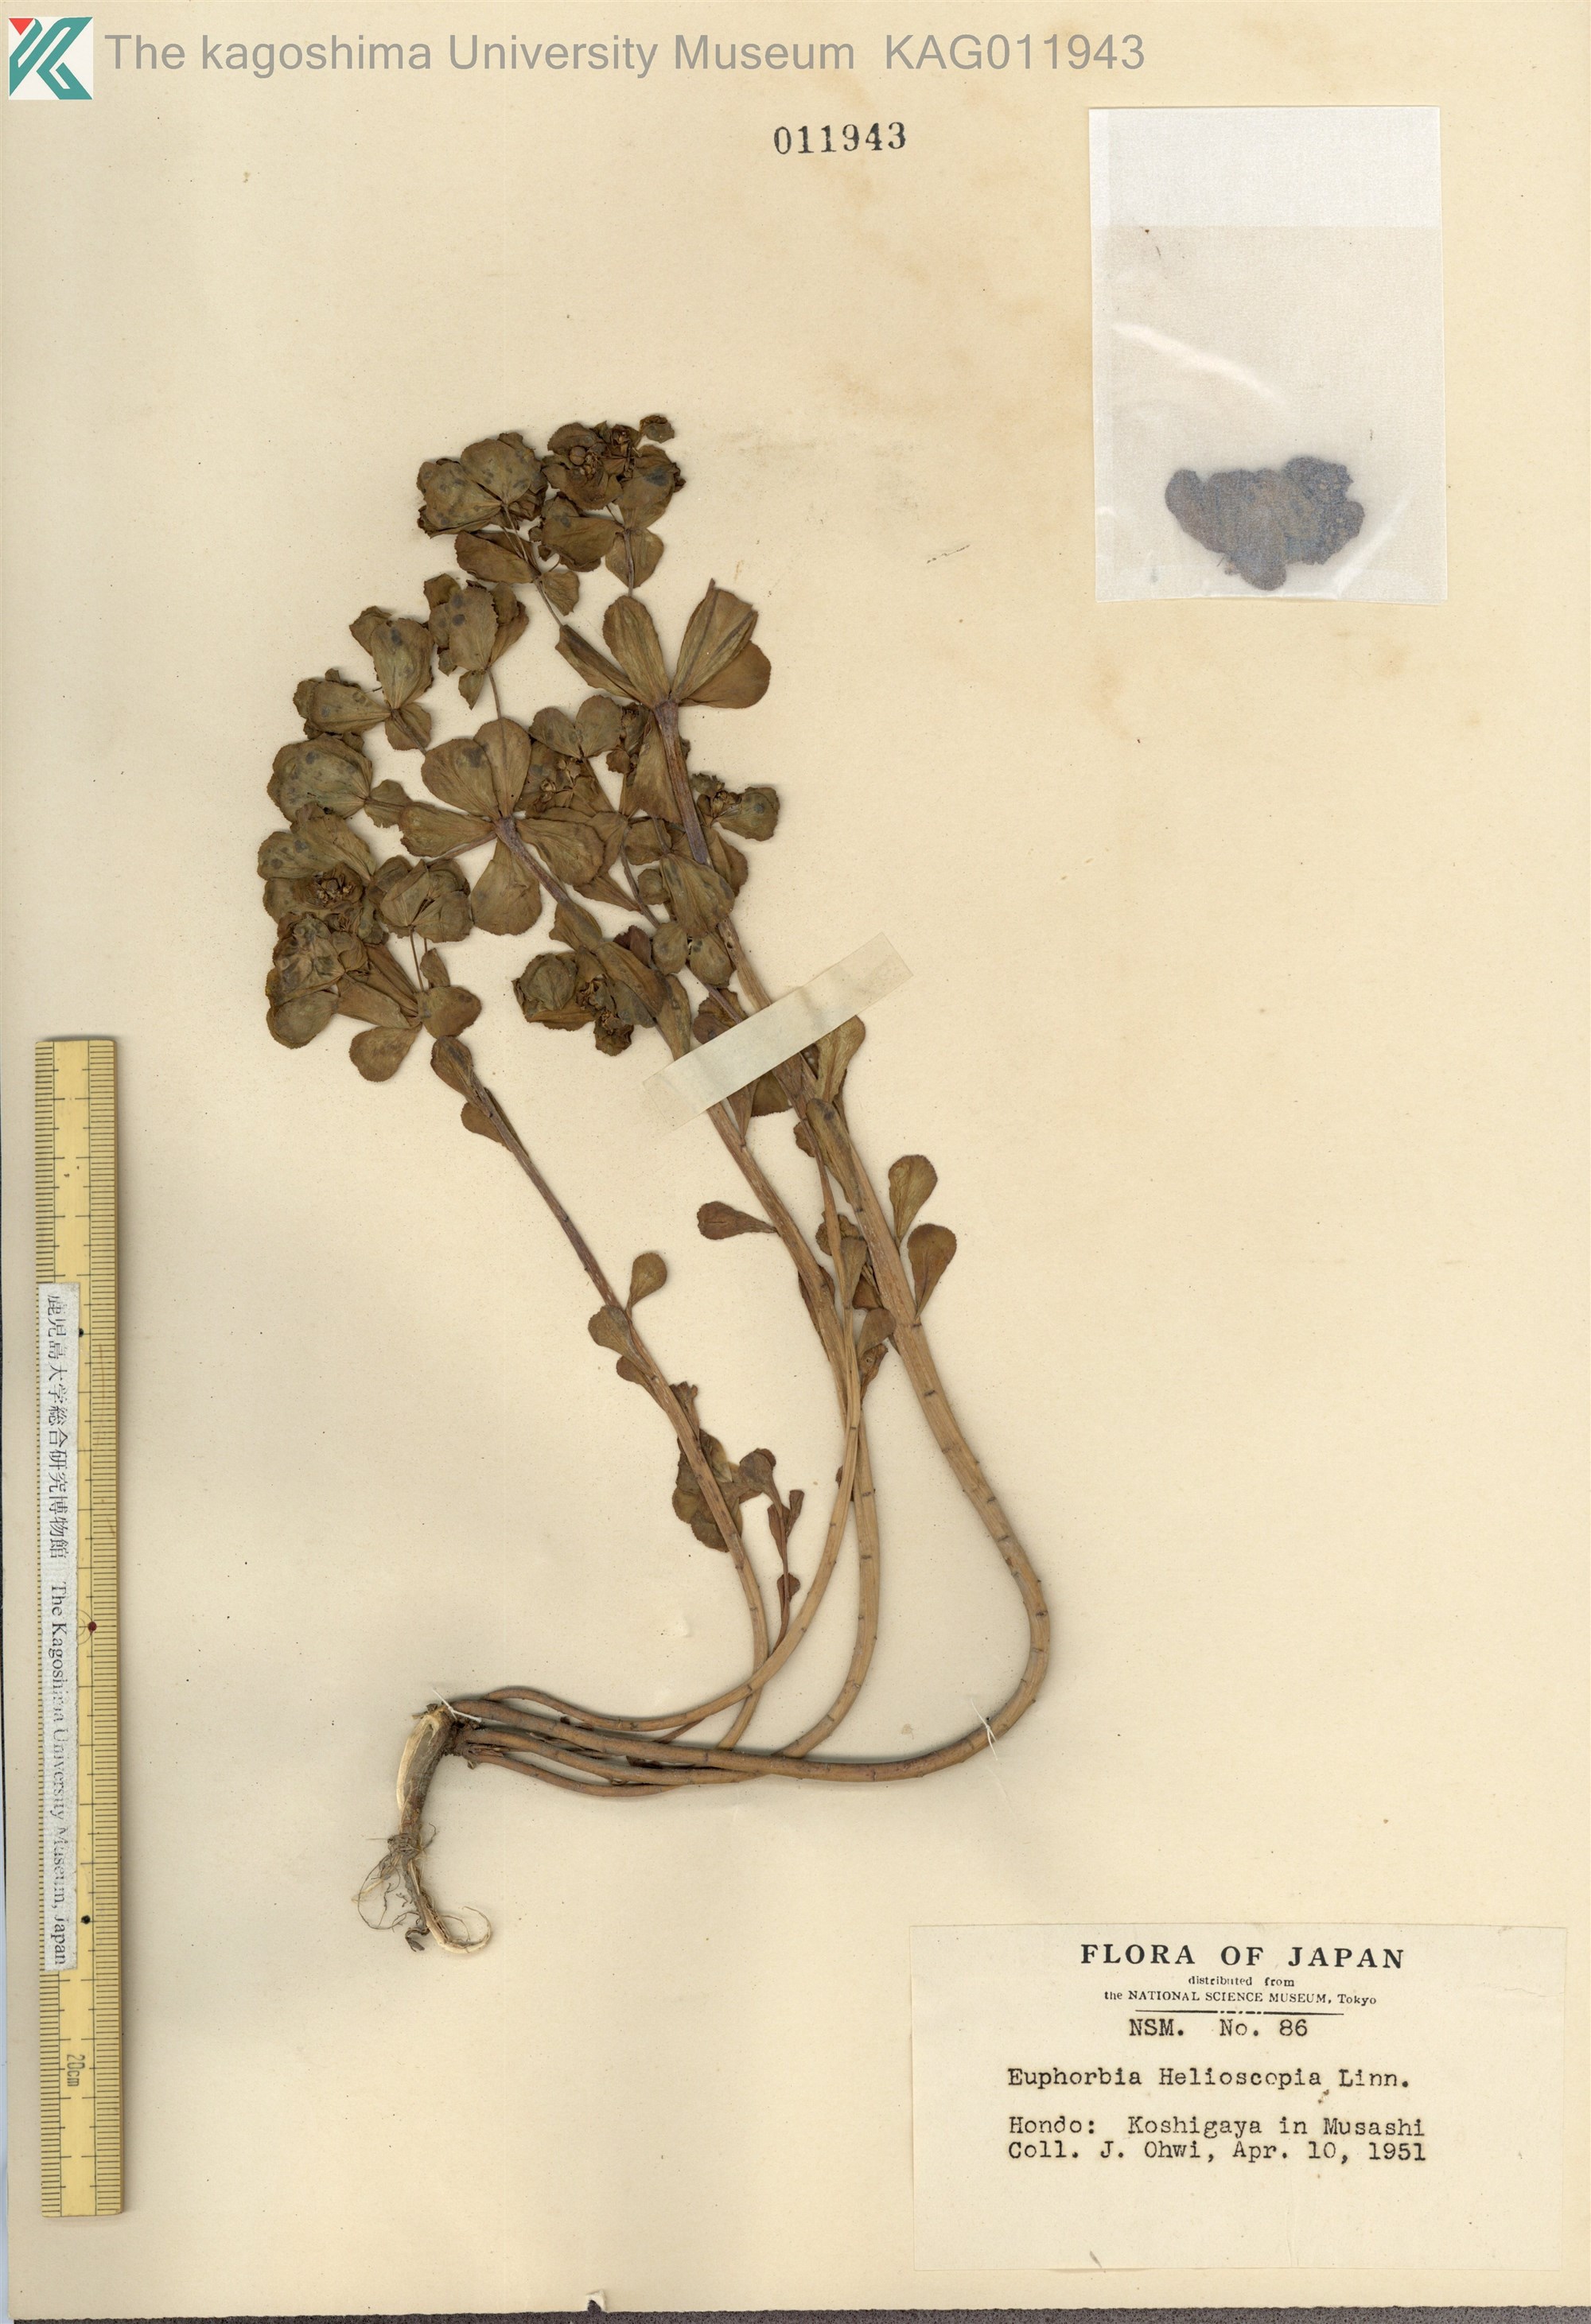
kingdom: Plantae
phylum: Tracheophyta
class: Magnoliopsida
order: Malpighiales
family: Euphorbiaceae
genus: Euphorbia
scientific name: Euphorbia helioscopia
